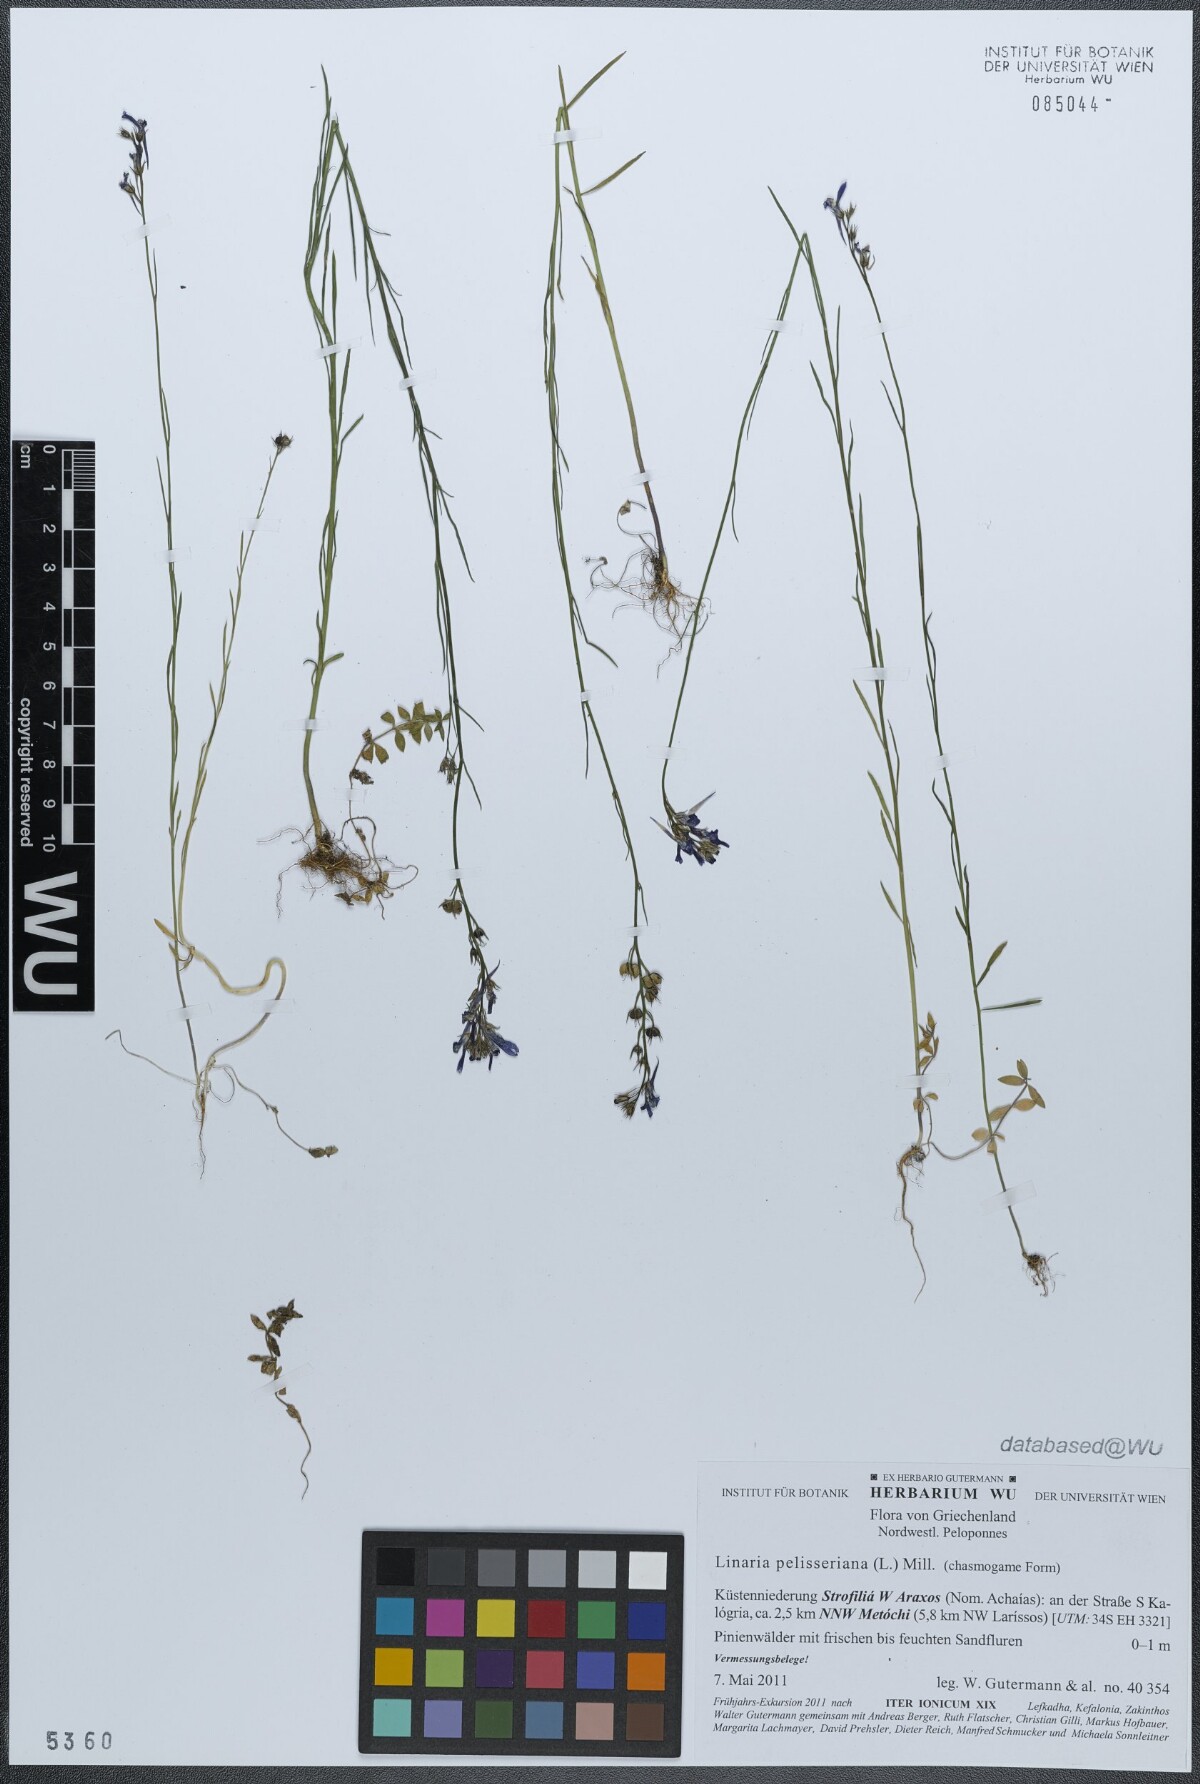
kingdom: Plantae
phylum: Tracheophyta
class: Magnoliopsida
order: Lamiales
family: Plantaginaceae
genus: Linaria
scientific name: Linaria pelisseriana
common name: Jersey toadflax
